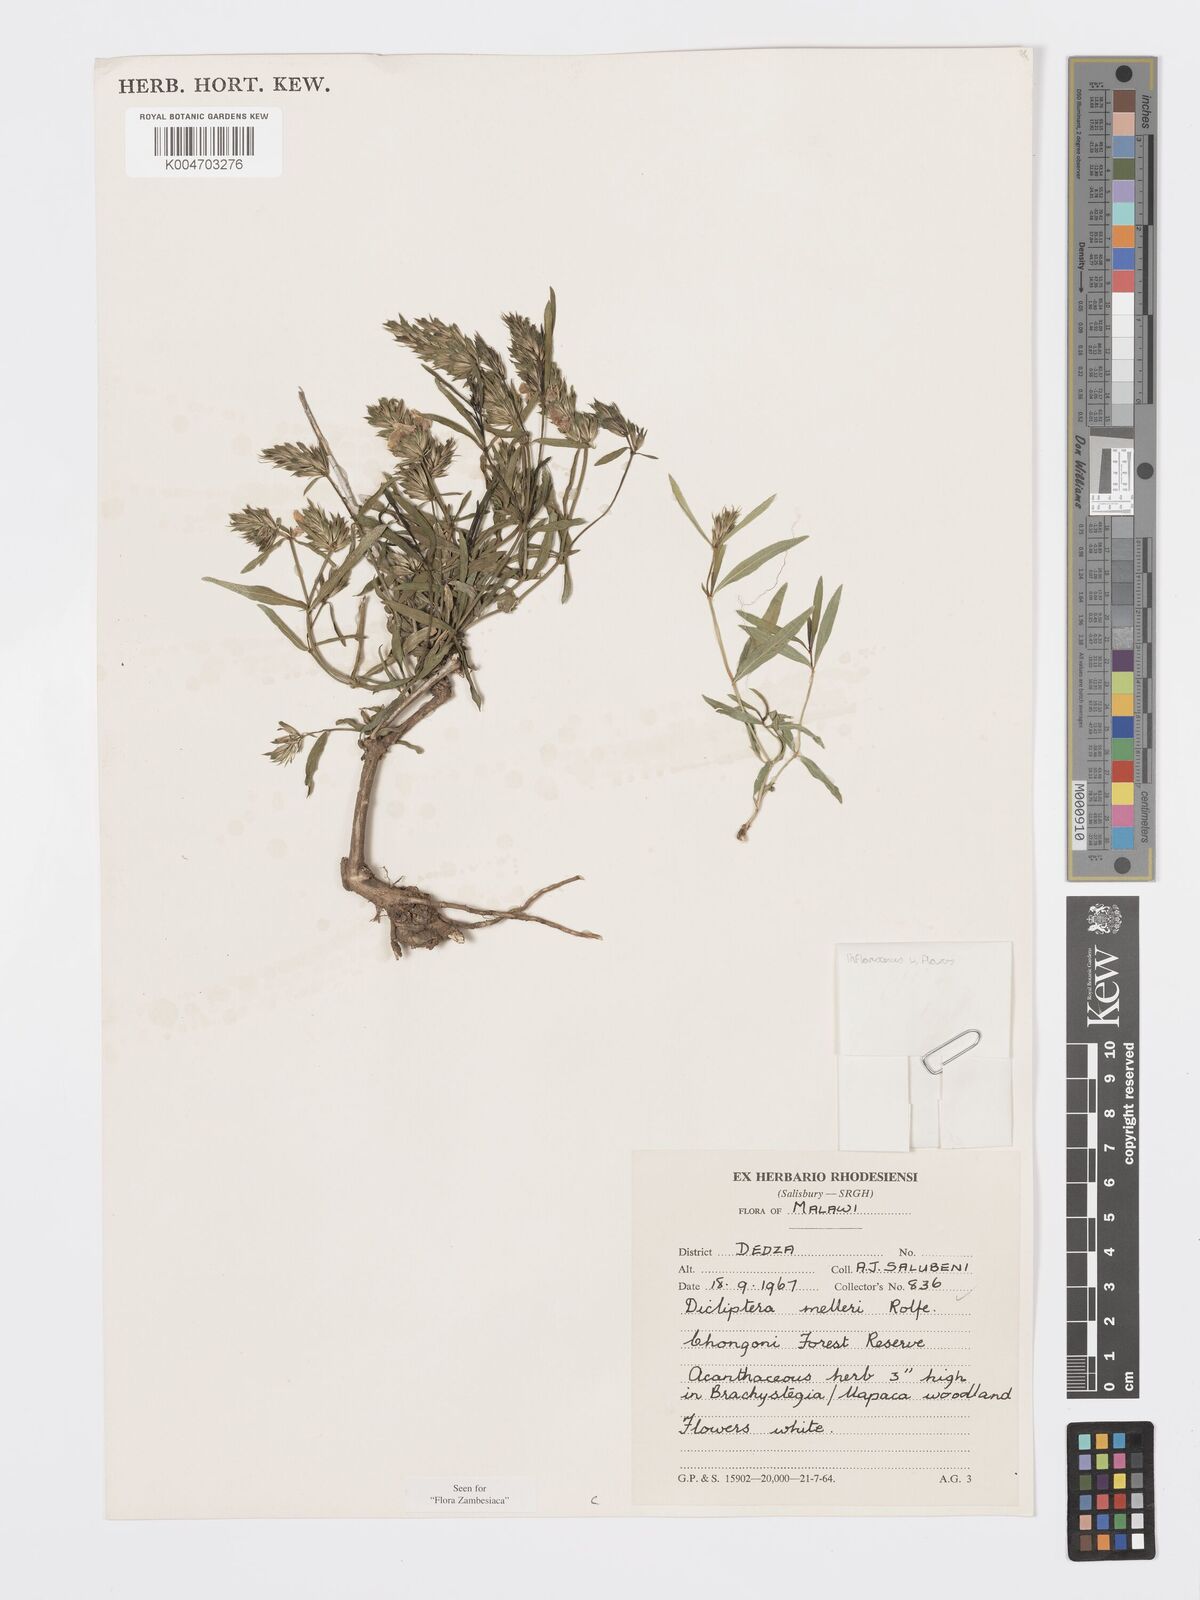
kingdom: Plantae
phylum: Tracheophyta
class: Magnoliopsida
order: Lamiales
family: Acanthaceae
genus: Dicliptera
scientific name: Dicliptera melleri
